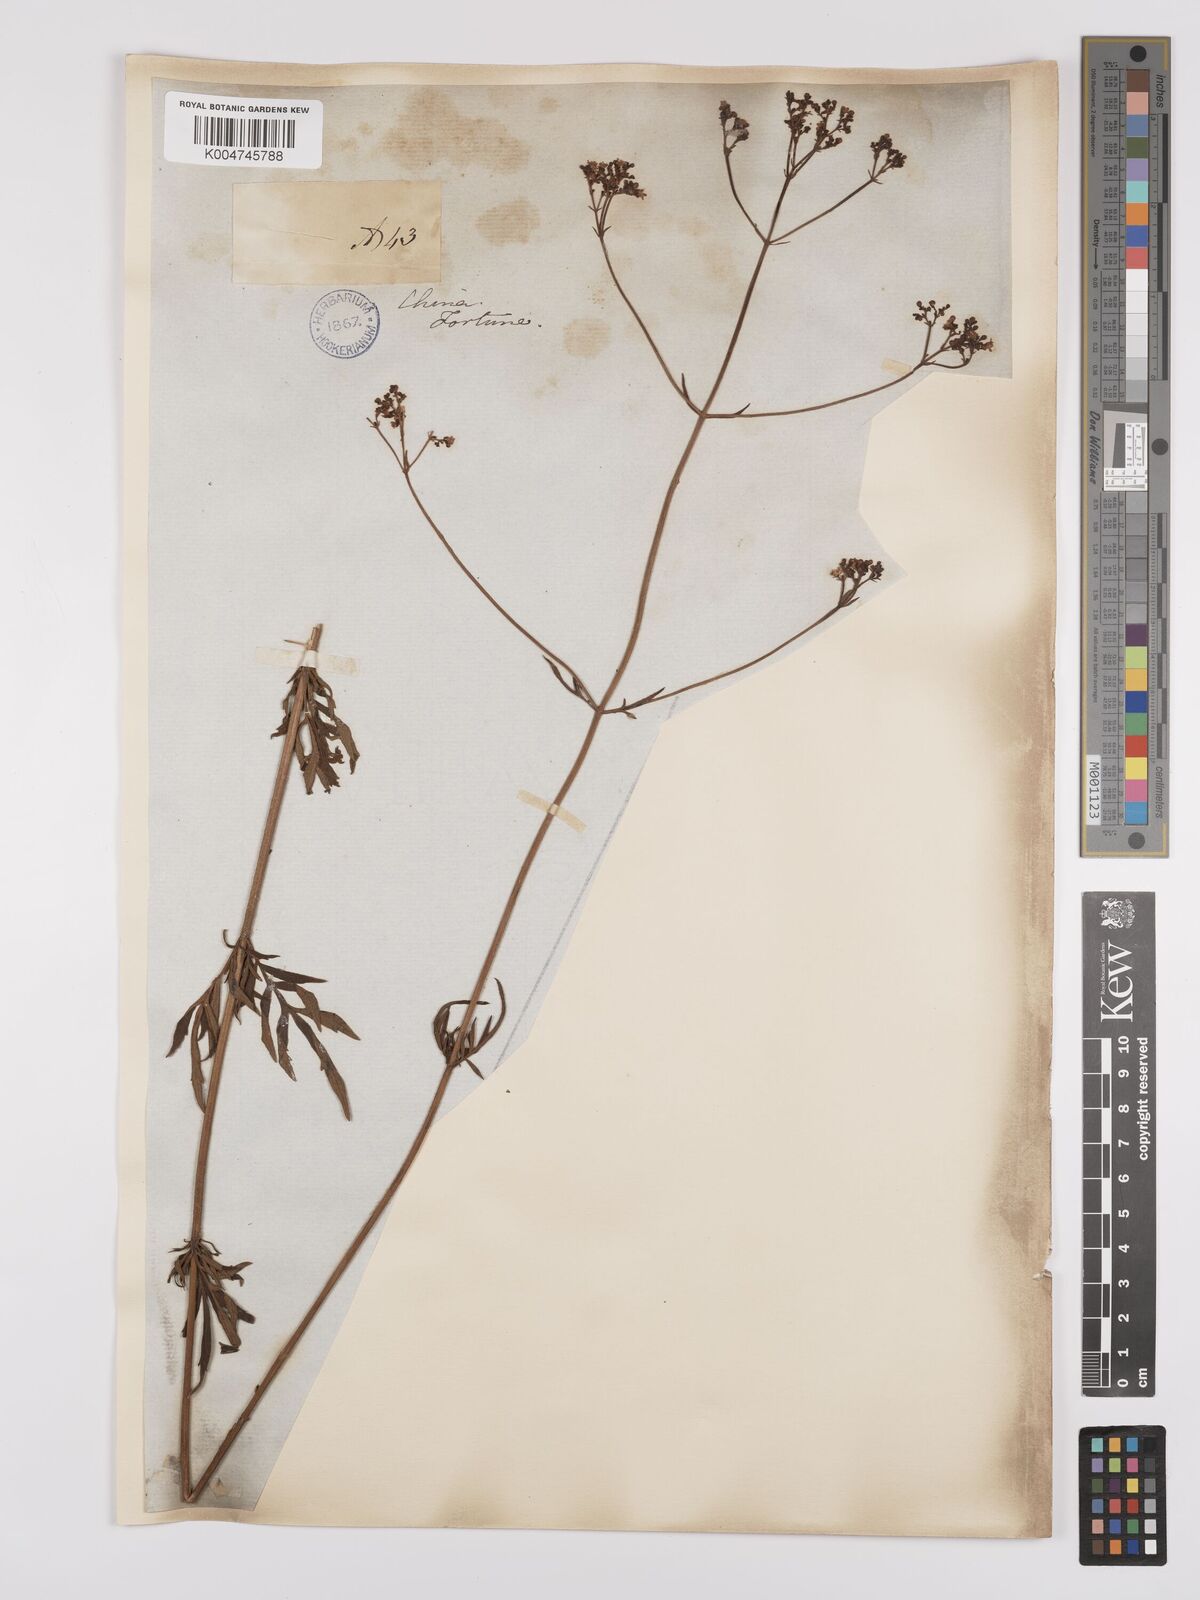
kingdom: Plantae
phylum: Tracheophyta
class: Magnoliopsida
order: Dipsacales
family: Caprifoliaceae
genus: Patrinia
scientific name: Patrinia scabiosifolia
